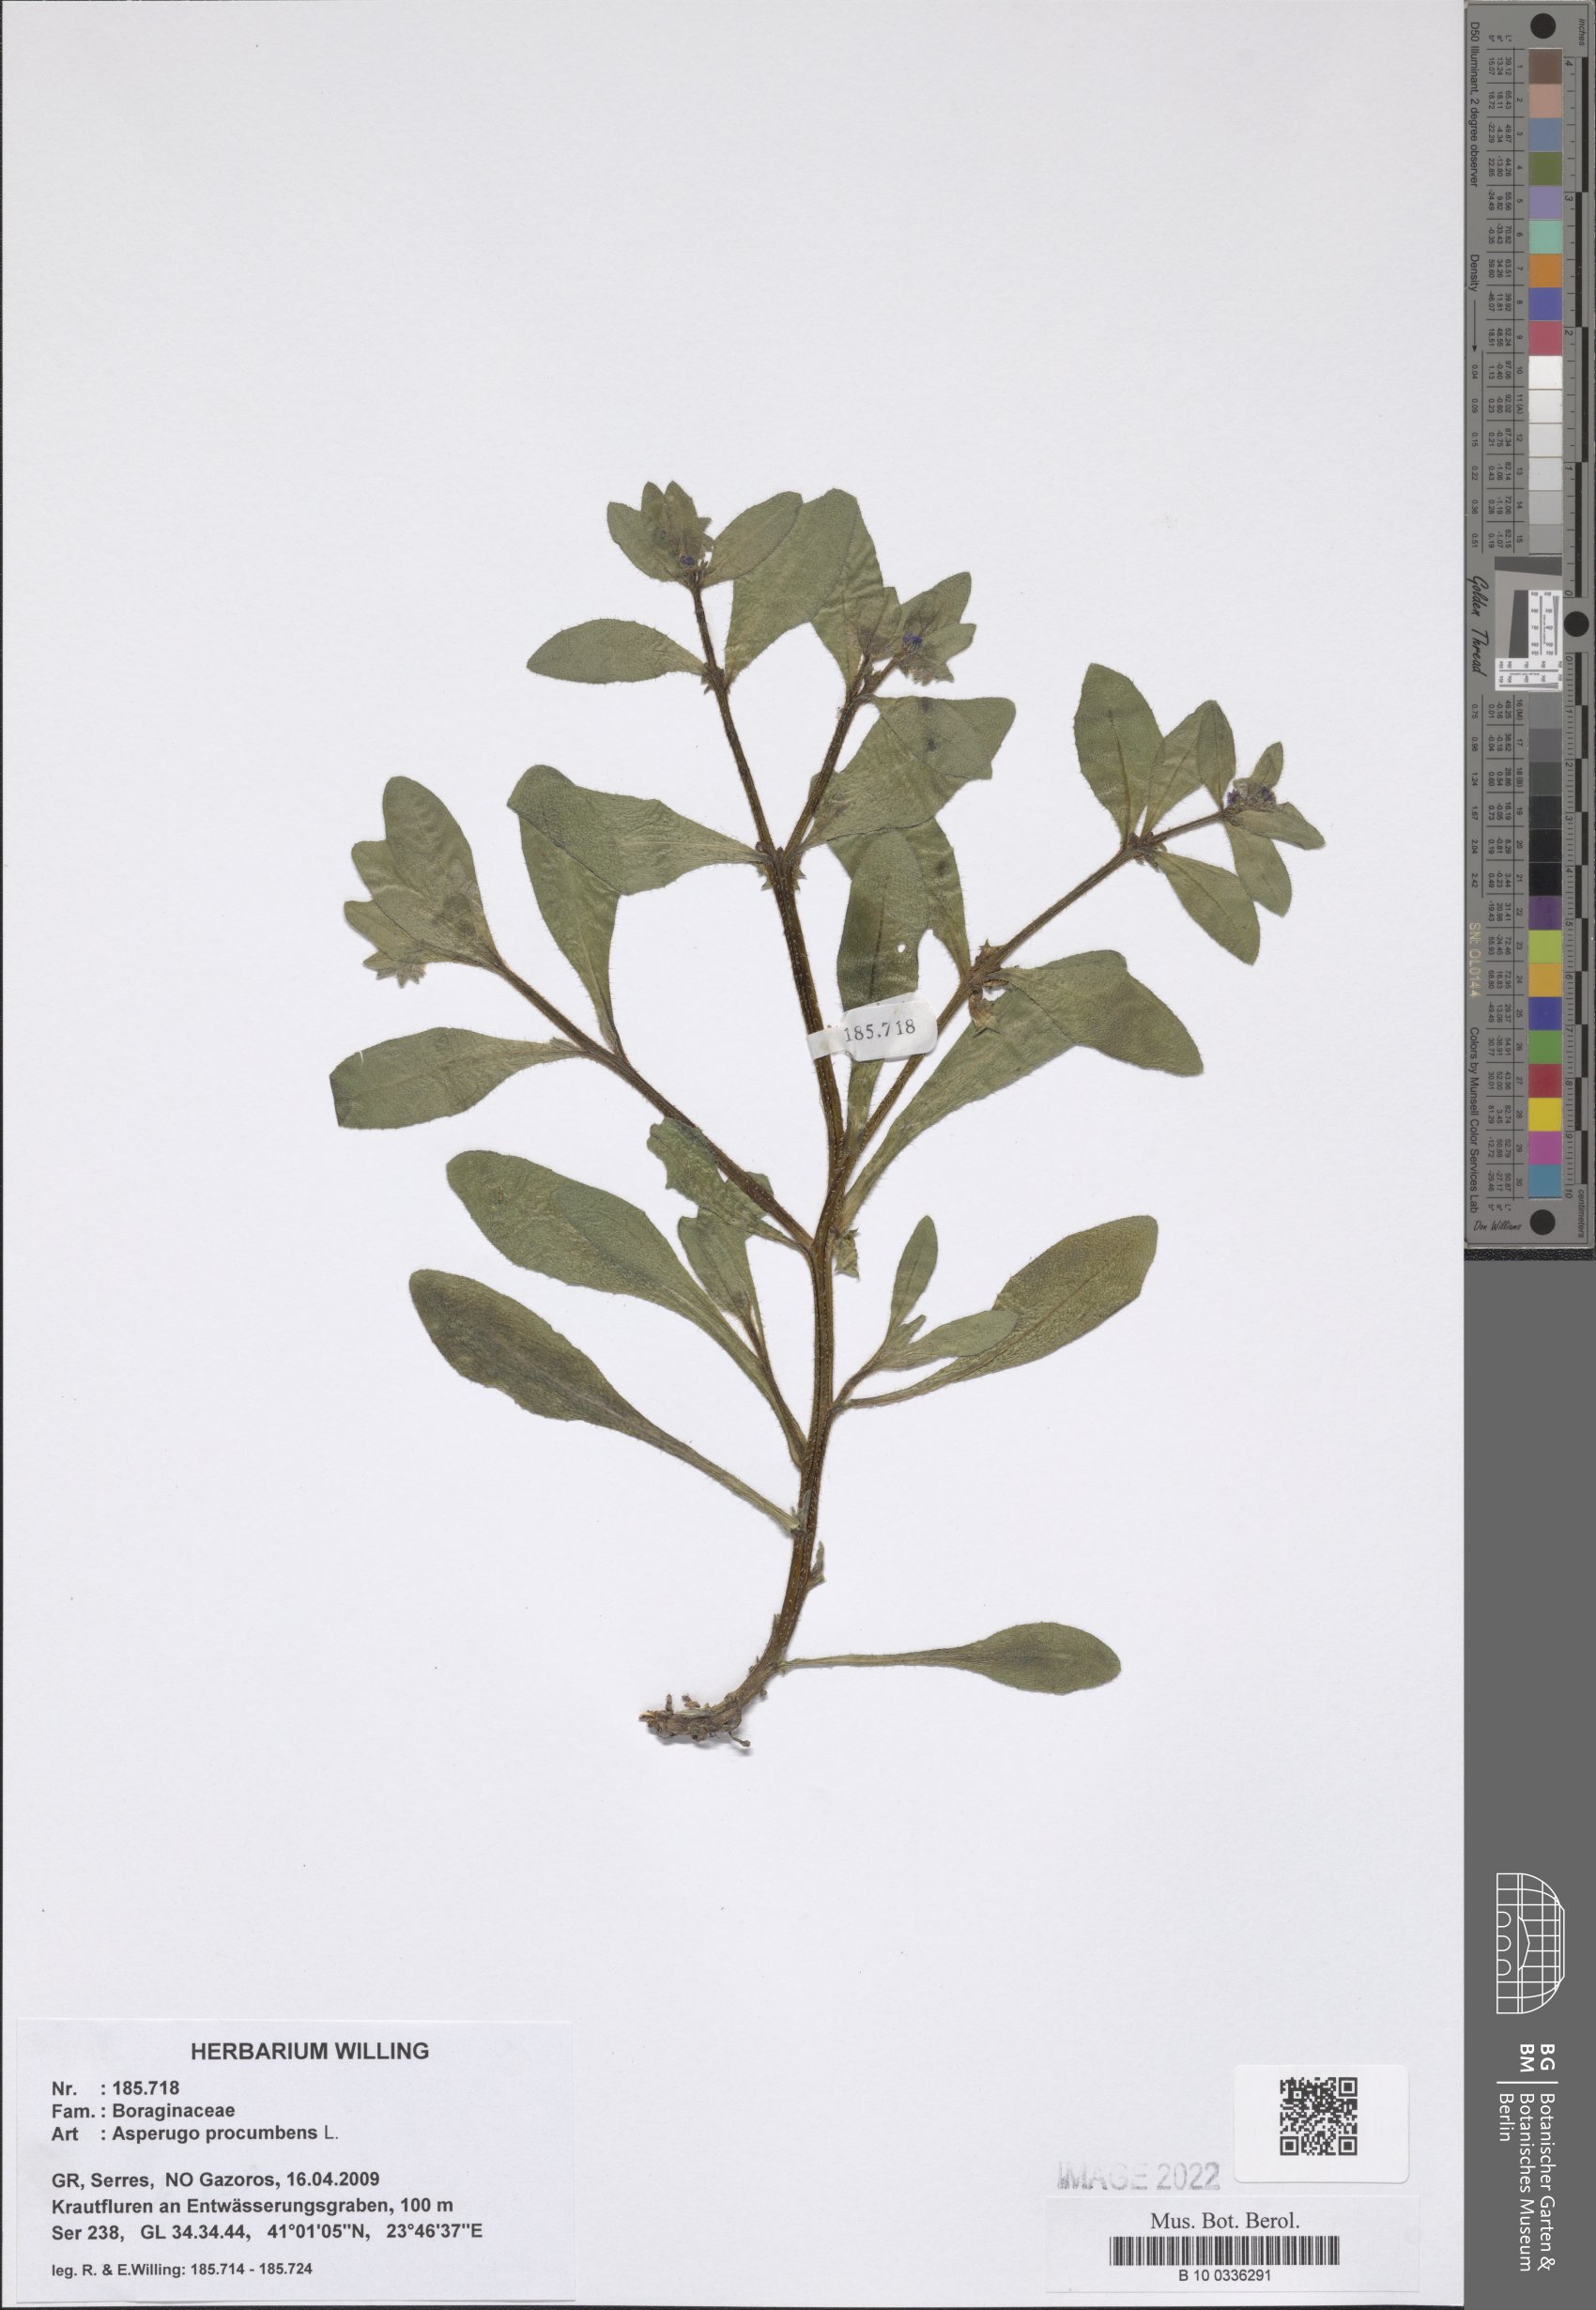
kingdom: Plantae
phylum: Tracheophyta
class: Magnoliopsida
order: Boraginales
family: Boraginaceae
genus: Asperugo
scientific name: Asperugo procumbens
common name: Madwort
